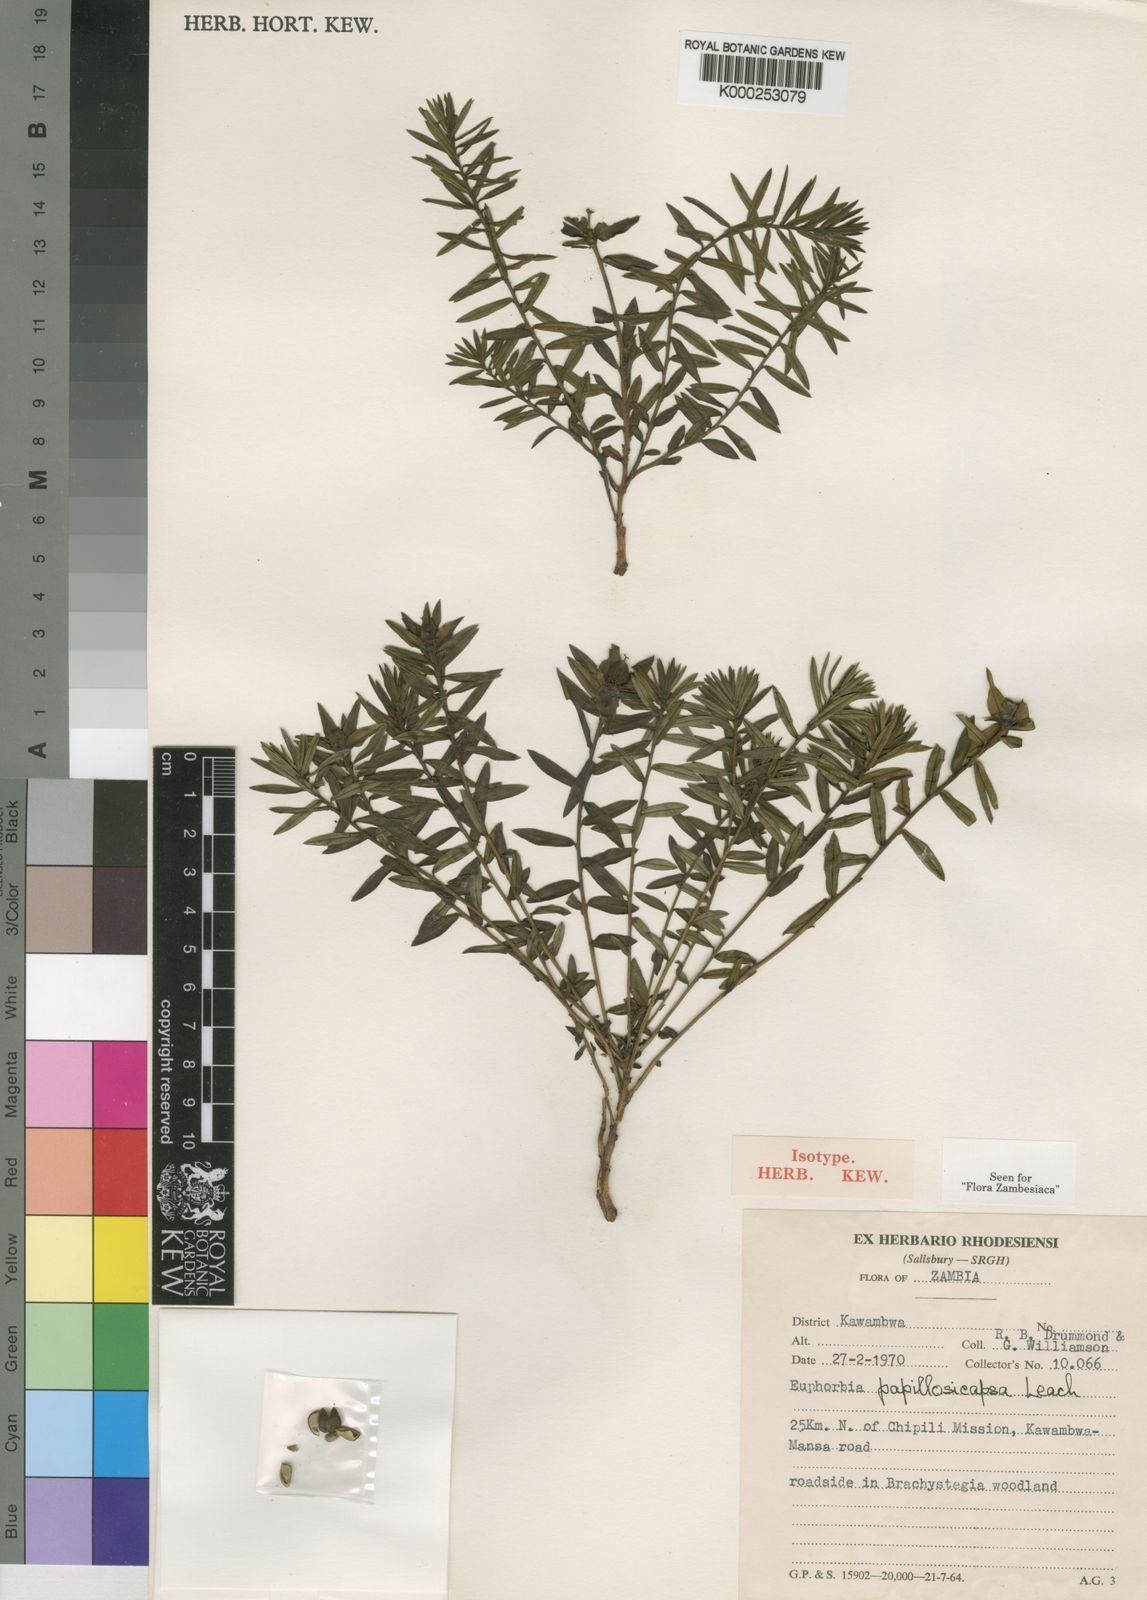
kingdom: Plantae
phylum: Tracheophyta
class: Magnoliopsida
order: Malpighiales
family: Euphorbiaceae
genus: Euphorbia
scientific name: Euphorbia papillosicapsa
